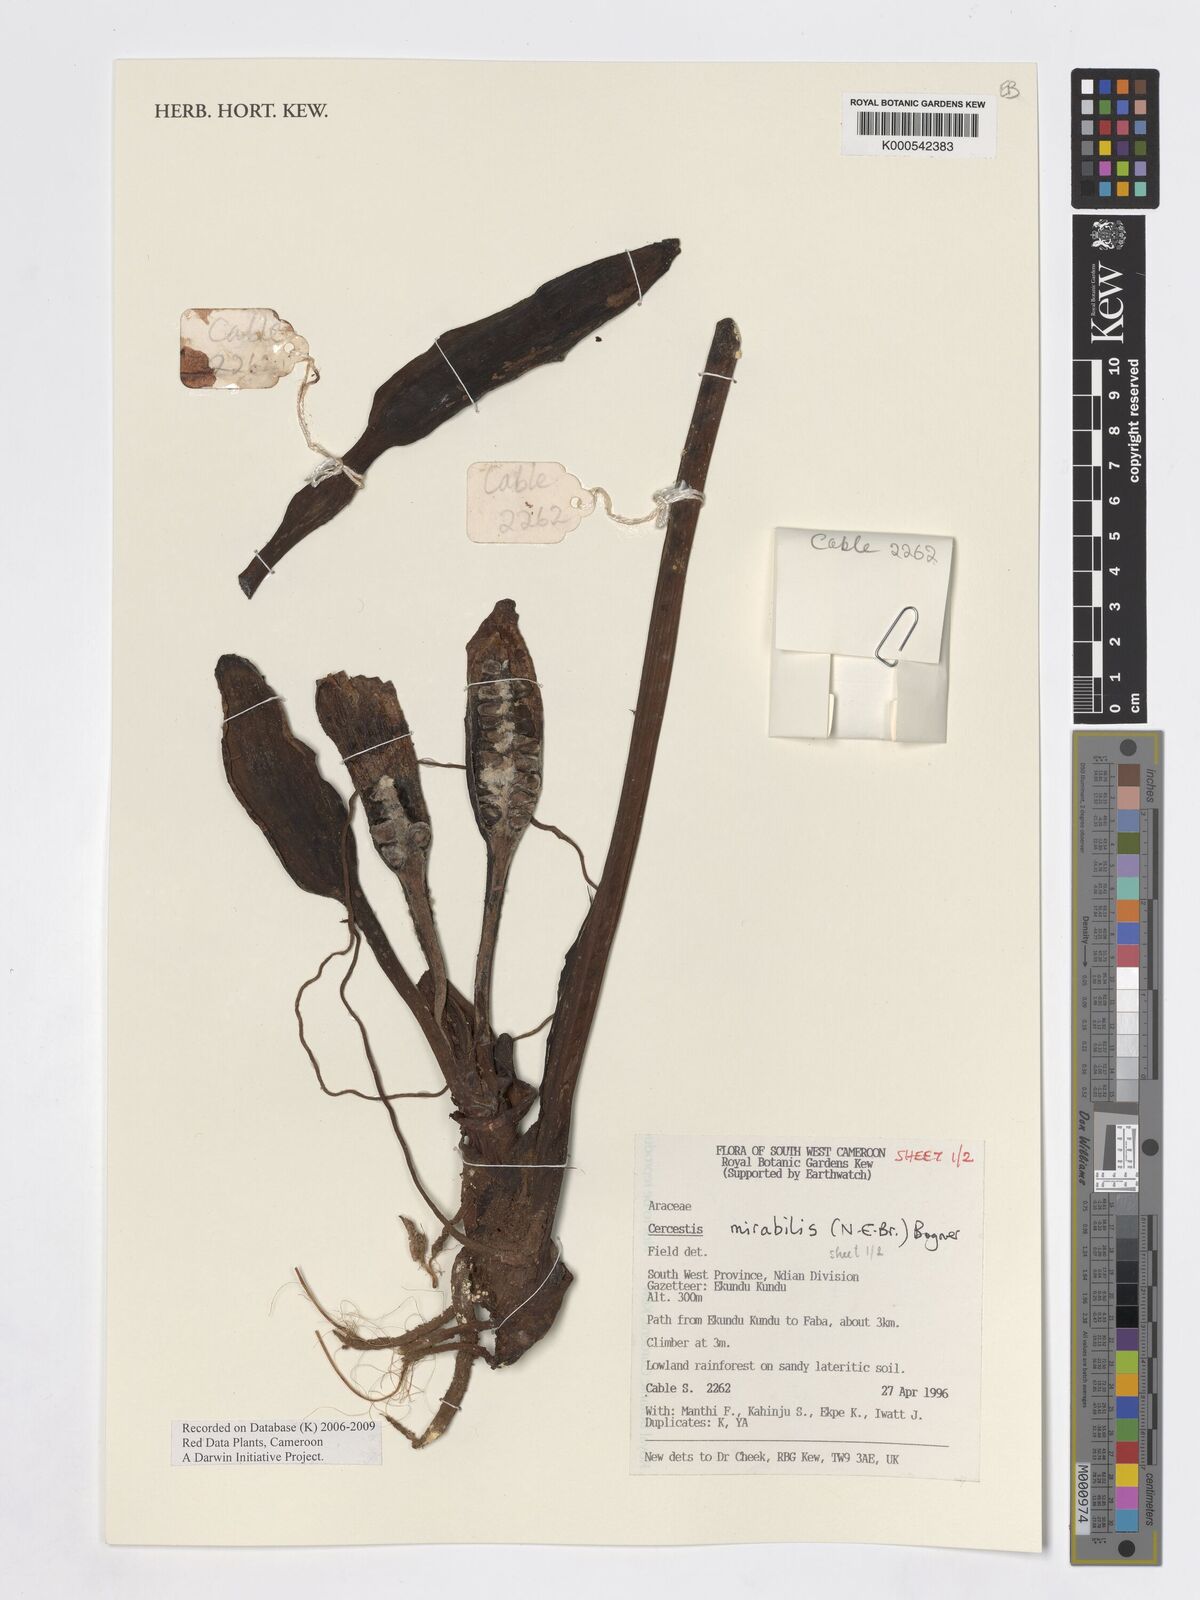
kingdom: Plantae
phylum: Tracheophyta
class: Liliopsida
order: Alismatales
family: Araceae
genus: Cercestis
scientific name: Cercestis mirabilis
